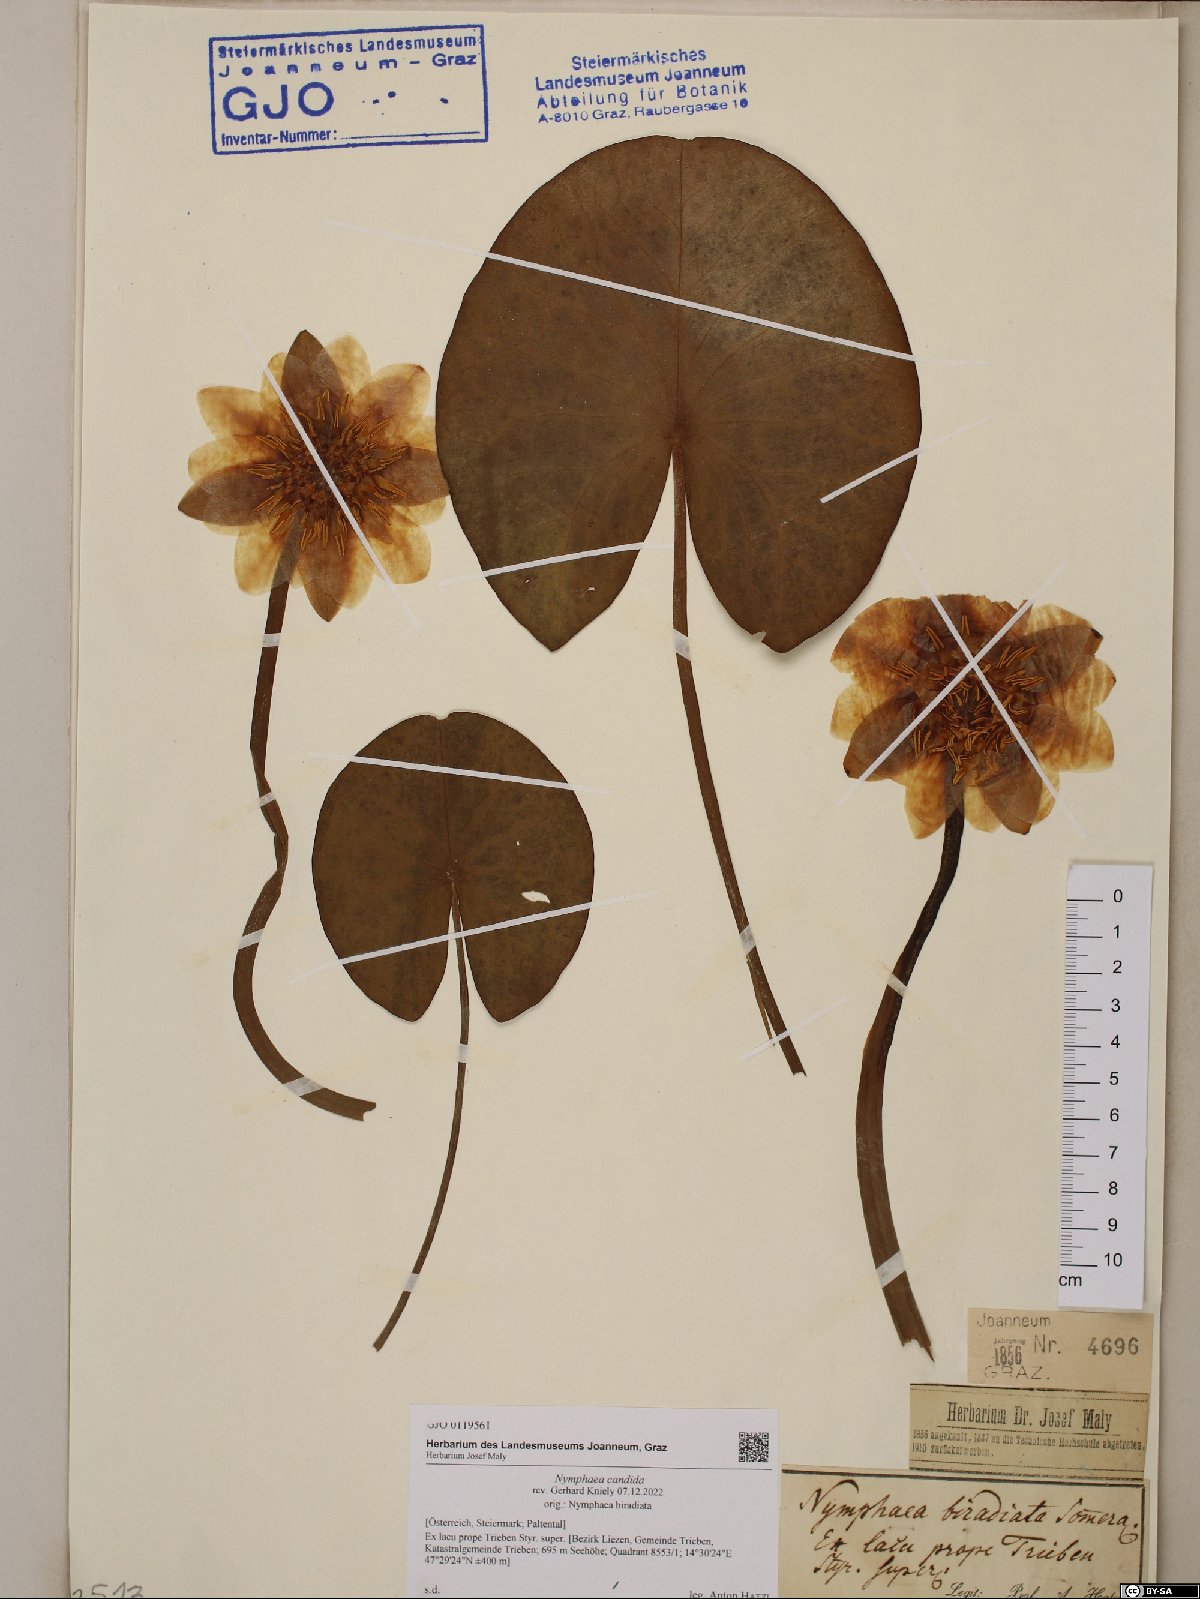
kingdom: Plantae
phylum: Tracheophyta
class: Magnoliopsida
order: Nymphaeales
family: Nymphaeaceae
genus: Nymphaea
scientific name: Nymphaea candida
